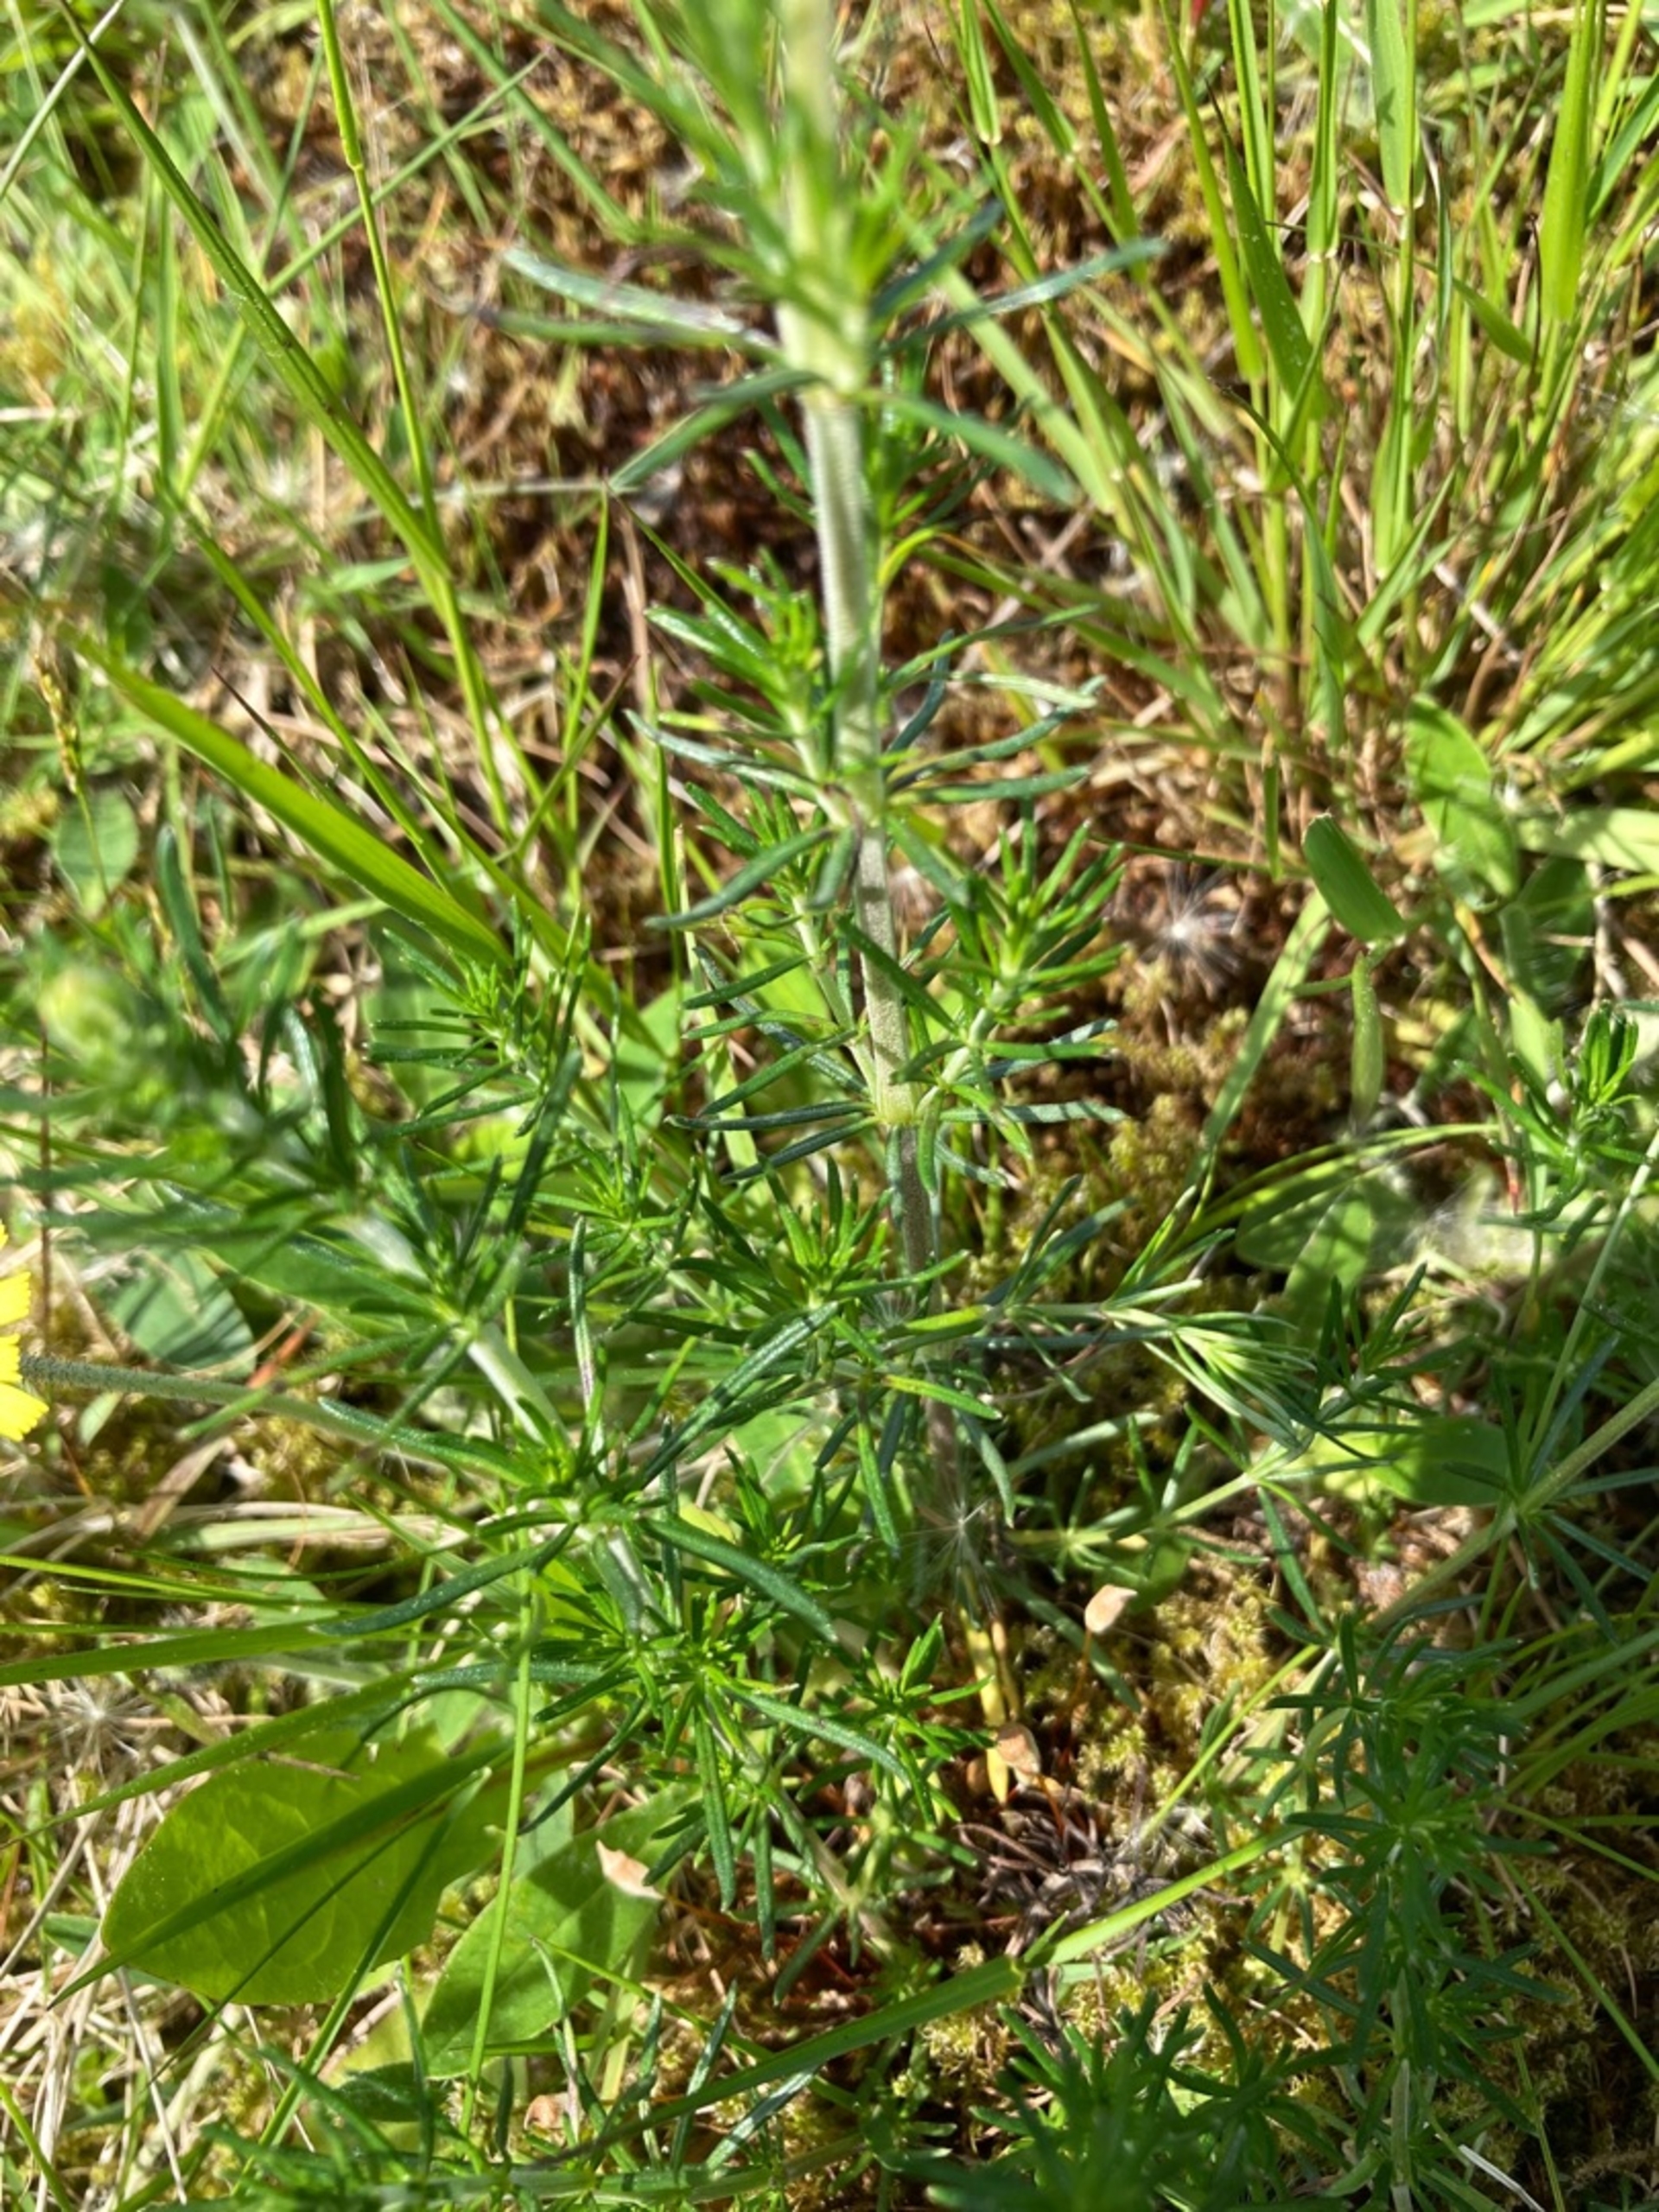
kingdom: Plantae
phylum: Tracheophyta
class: Magnoliopsida
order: Gentianales
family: Rubiaceae
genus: Galium
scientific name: Galium verum
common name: Gul snerre
